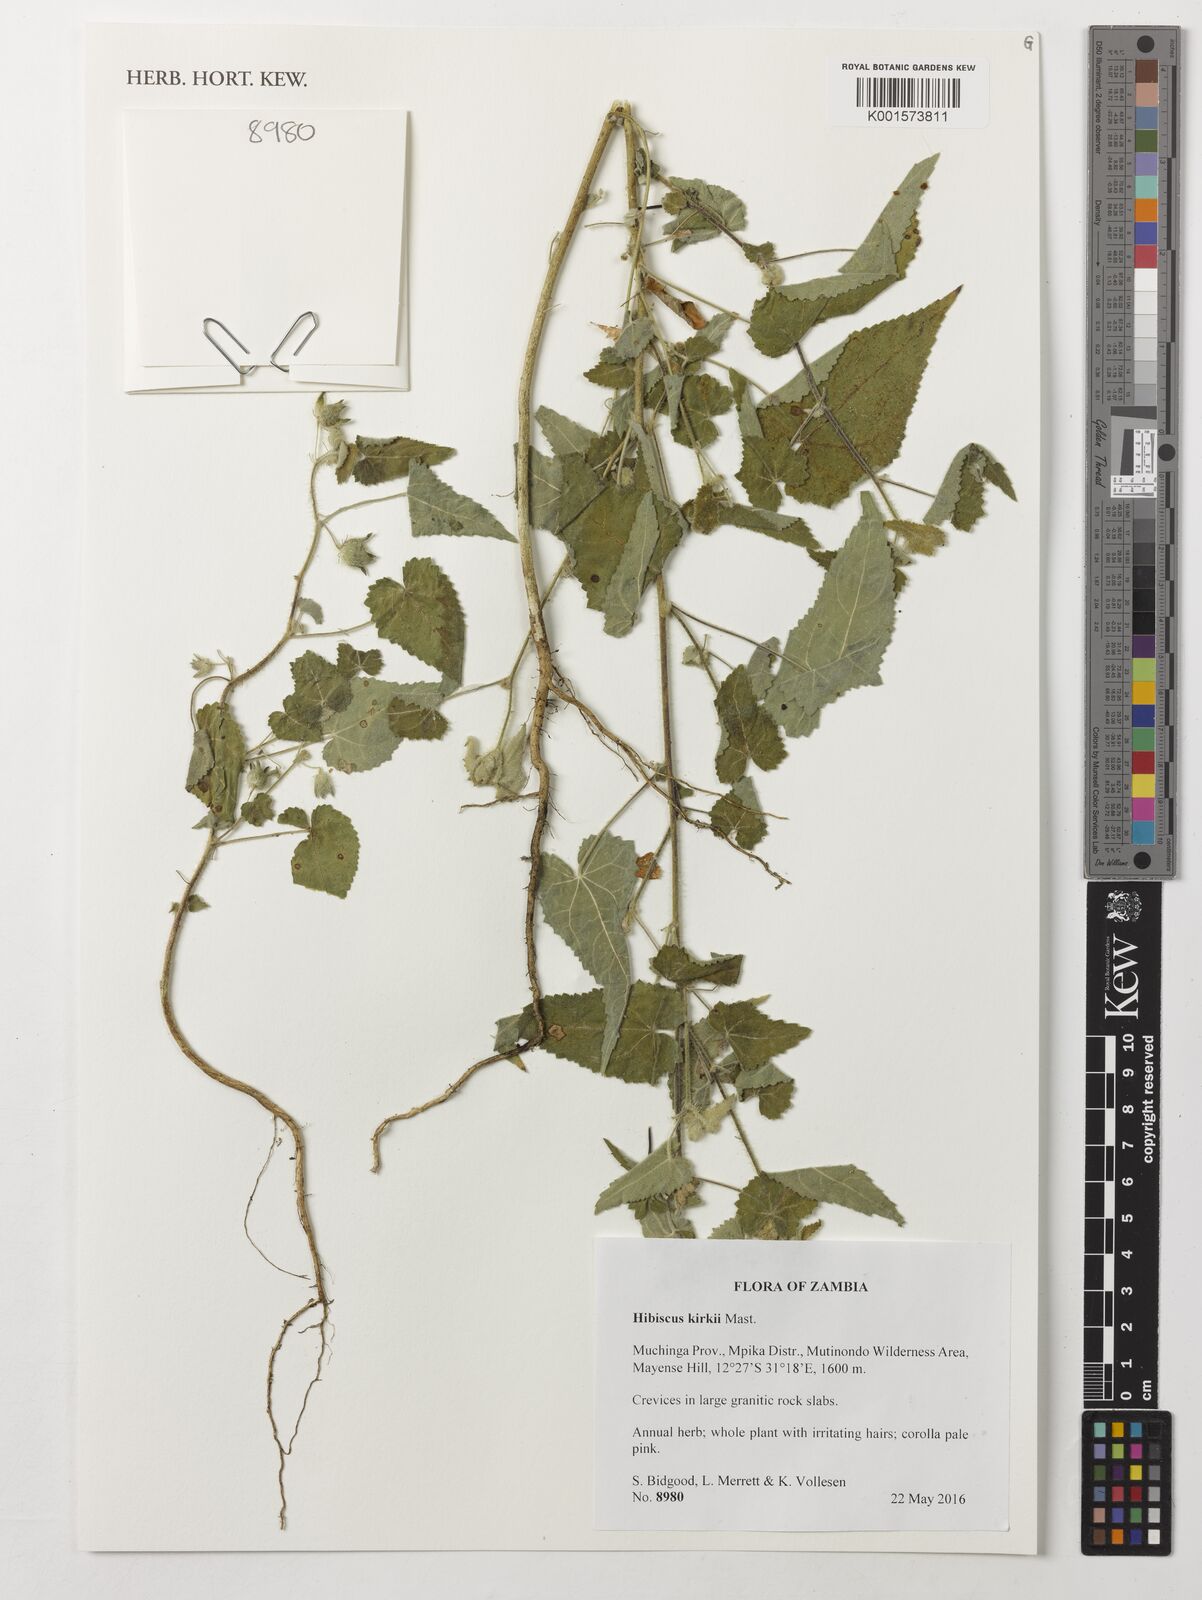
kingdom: Plantae
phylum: Tracheophyta
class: Magnoliopsida
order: Malvales
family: Malvaceae
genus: Hibiscus
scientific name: Hibiscus kirkii
